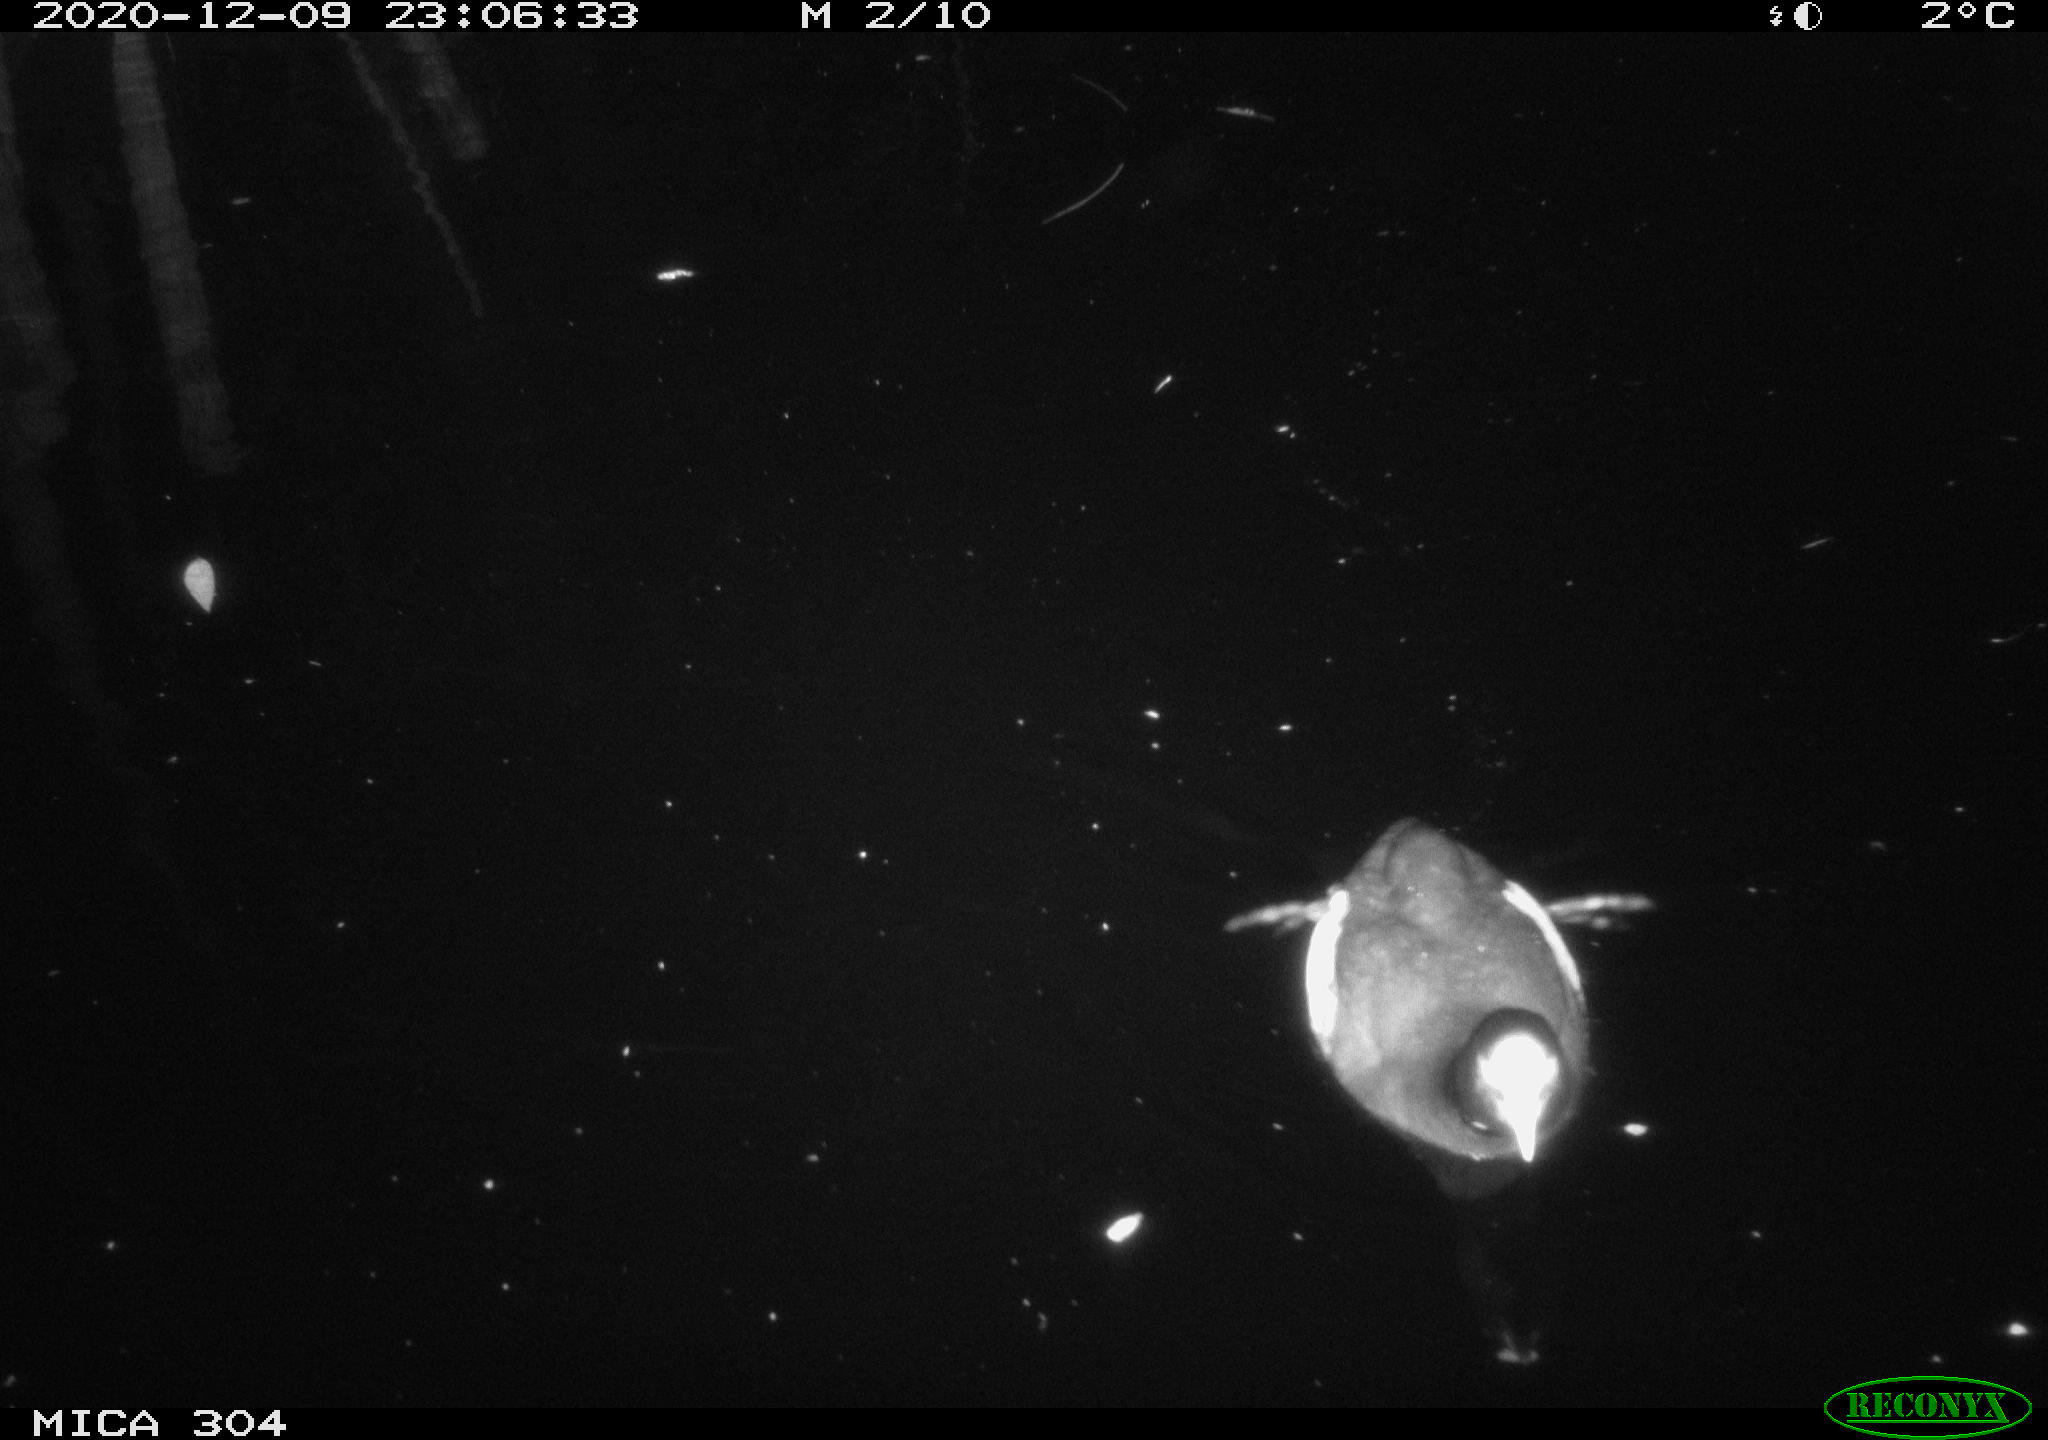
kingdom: Animalia
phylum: Chordata
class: Aves
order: Gruiformes
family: Rallidae
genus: Fulica
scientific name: Fulica atra
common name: Eurasian coot
